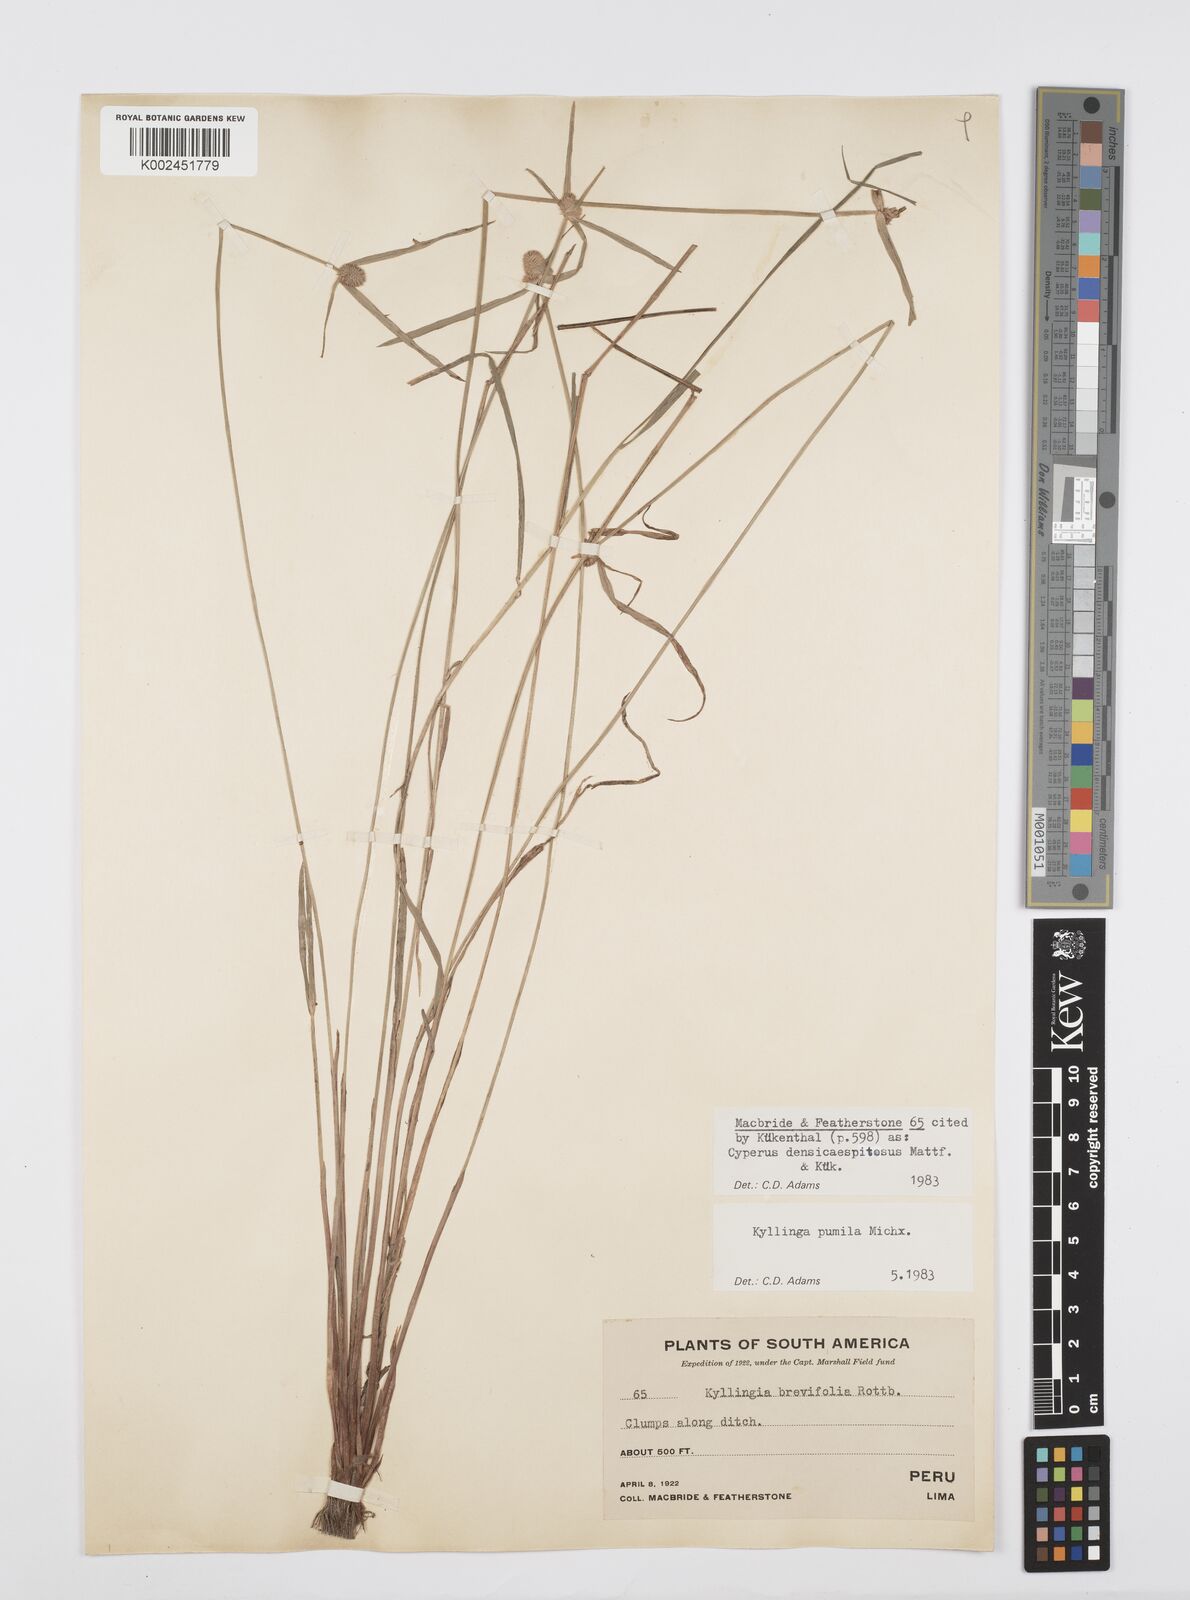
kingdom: Plantae
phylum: Tracheophyta
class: Liliopsida
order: Poales
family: Cyperaceae
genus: Cyperus
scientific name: Cyperus
